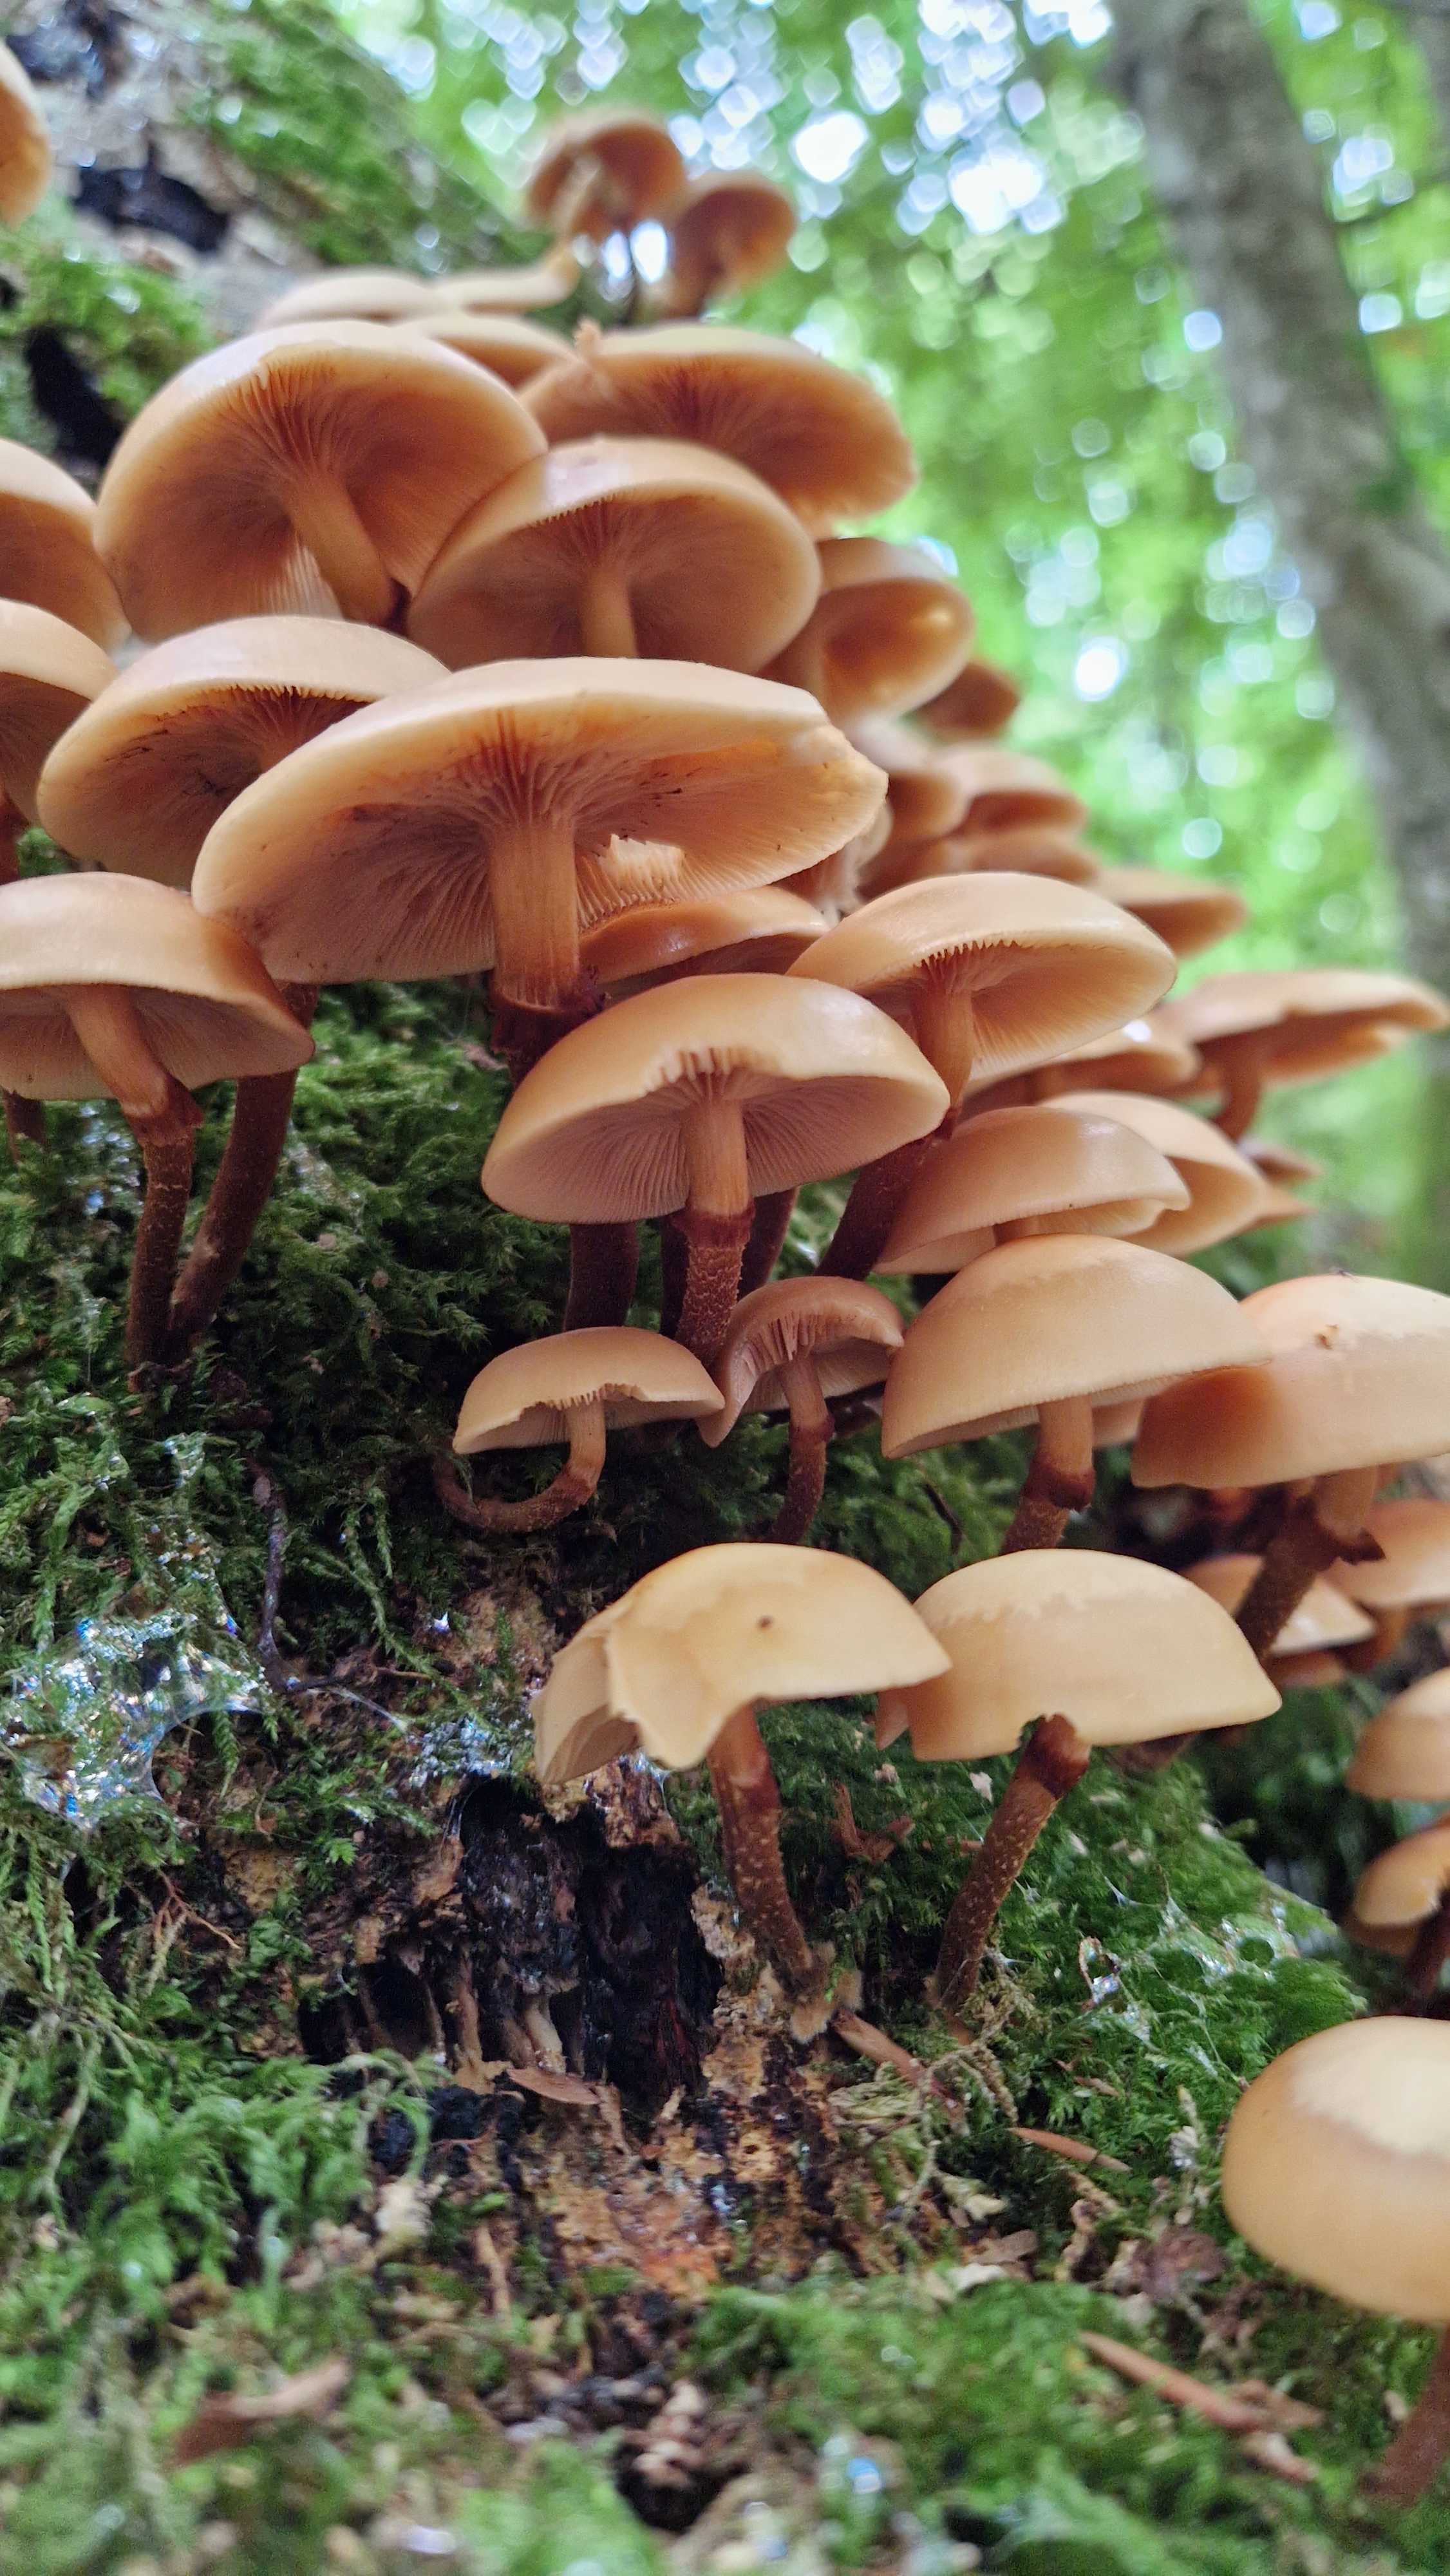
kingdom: Fungi
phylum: Basidiomycota
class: Agaricomycetes
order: Agaricales
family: Strophariaceae
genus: Kuehneromyces
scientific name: Kuehneromyces mutabilis
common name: foranderlig skælhat
